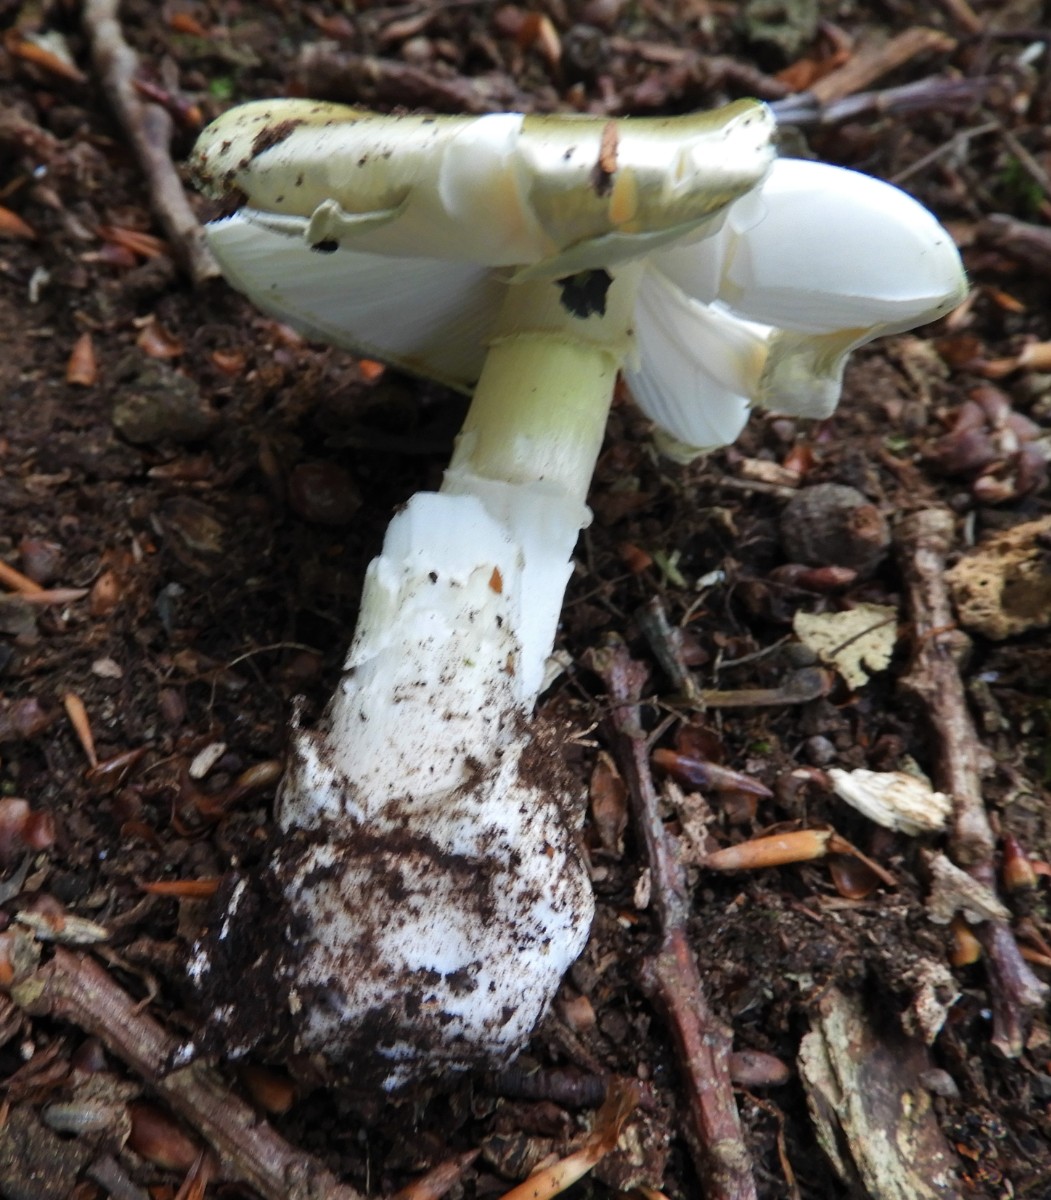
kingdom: Fungi
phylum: Basidiomycota
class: Agaricomycetes
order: Agaricales
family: Amanitaceae
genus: Amanita
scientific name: Amanita phalloides
